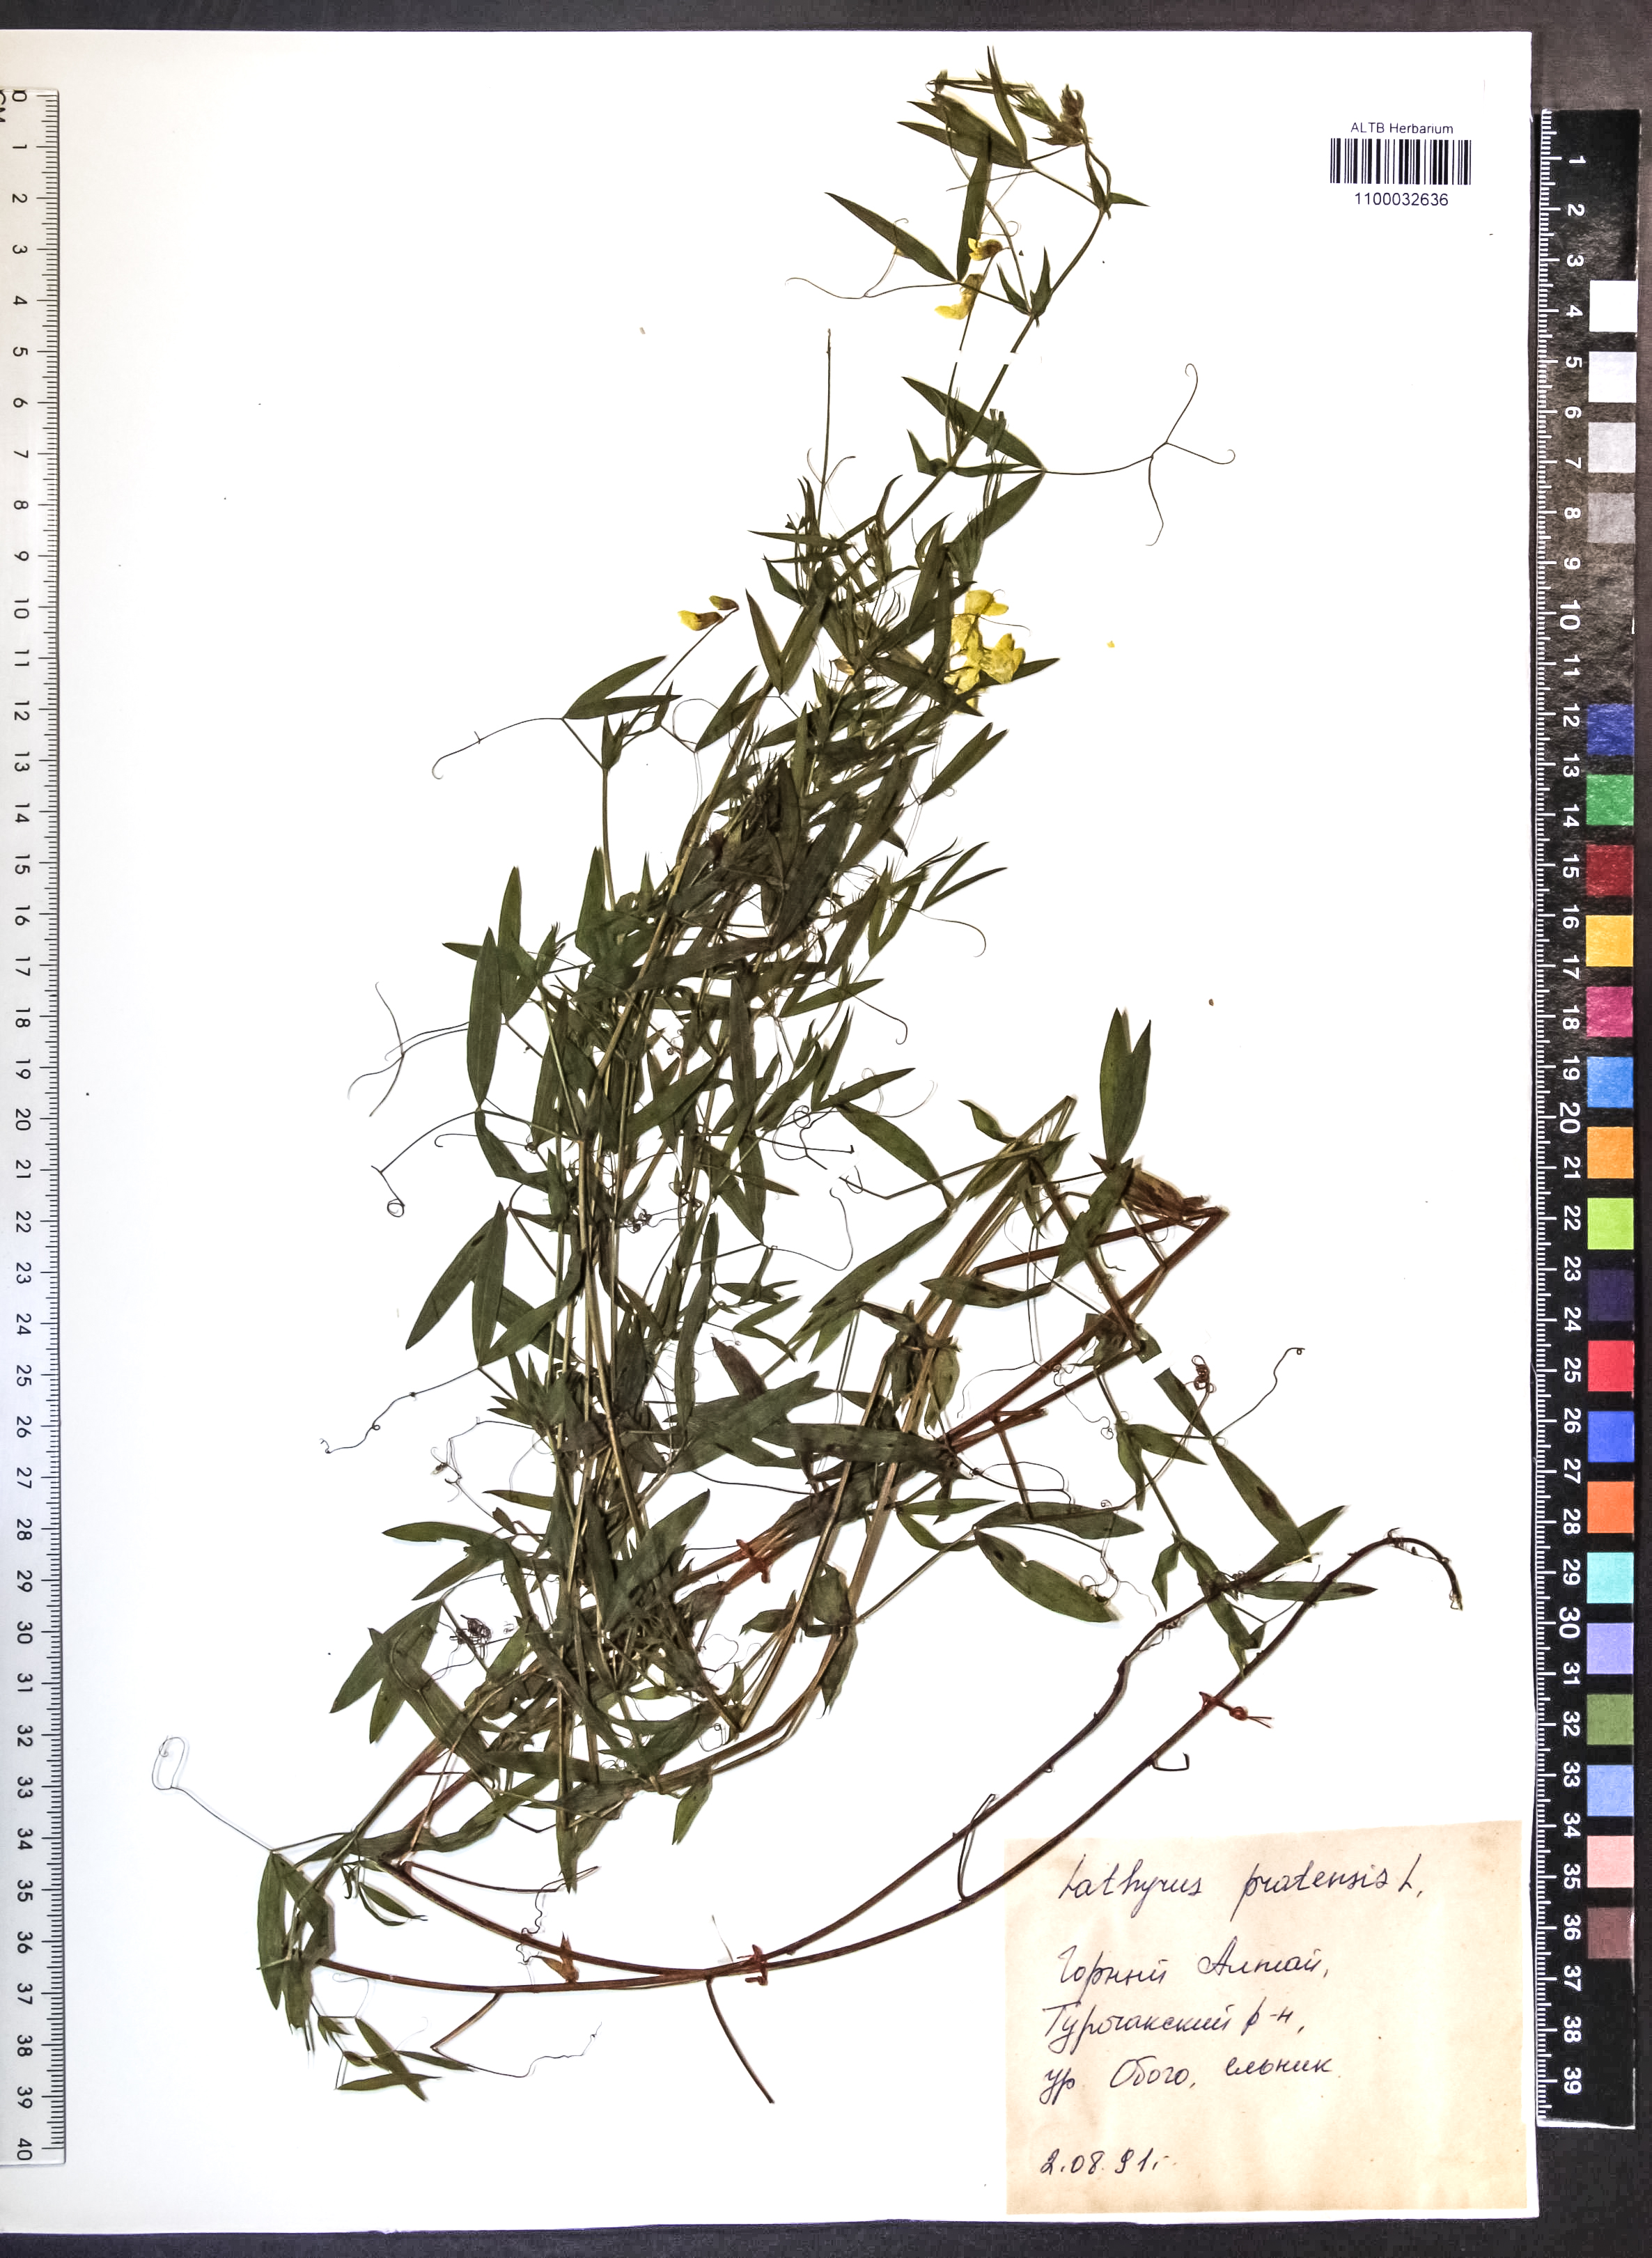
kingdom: Plantae
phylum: Tracheophyta
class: Magnoliopsida
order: Fabales
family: Fabaceae
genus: Lathyrus
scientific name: Lathyrus pratensis
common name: Meadow vetchling
